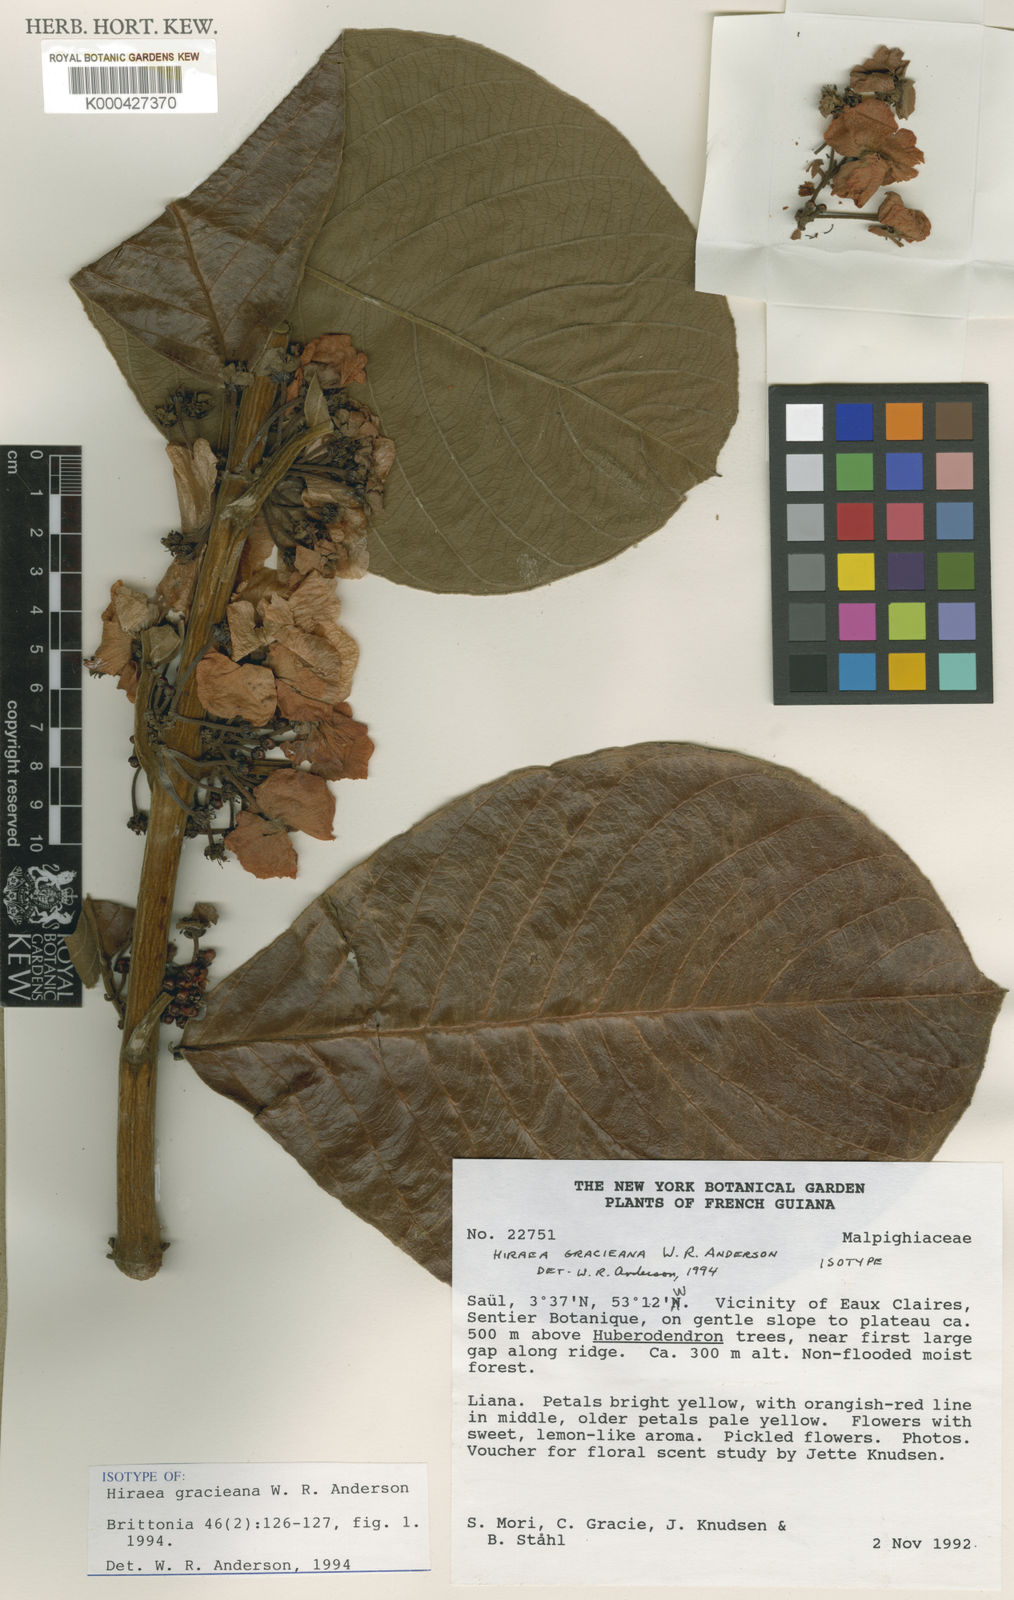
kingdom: Plantae
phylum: Tracheophyta
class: Magnoliopsida
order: Malpighiales
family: Malpighiaceae
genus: Hiraea
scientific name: Hiraea gracieana
